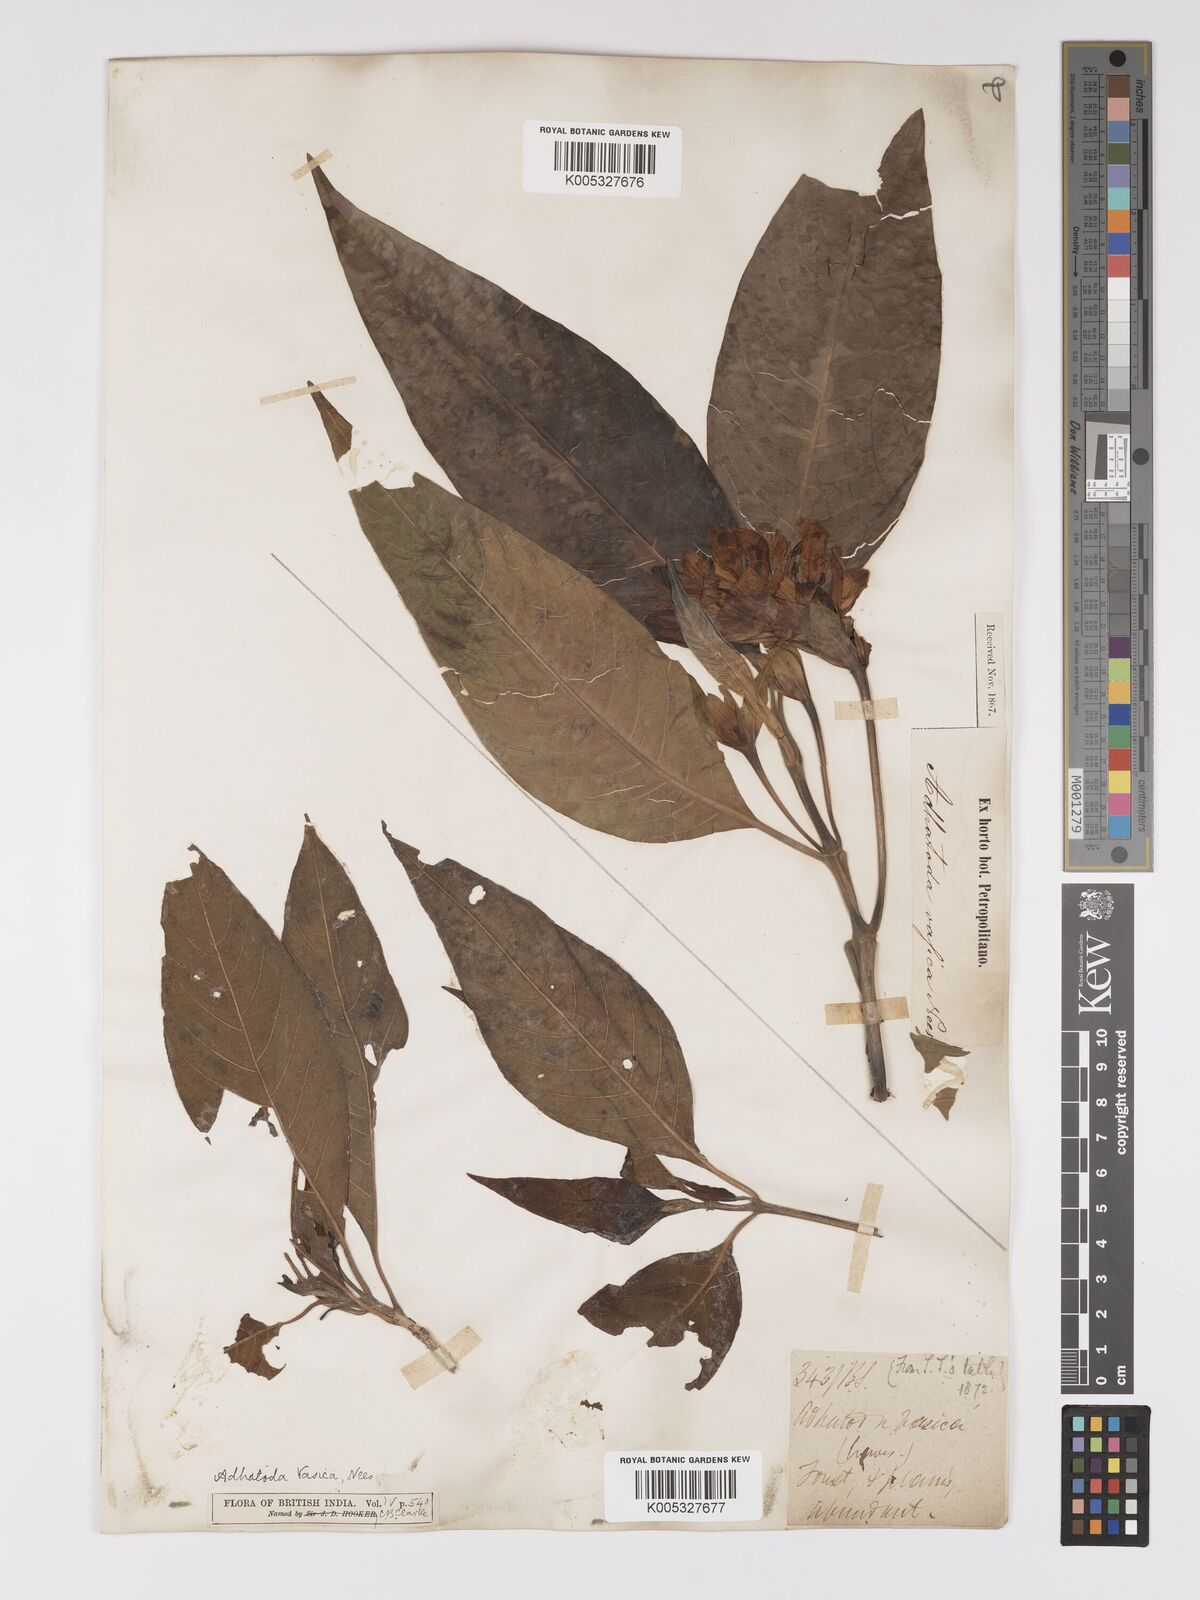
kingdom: Plantae
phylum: Tracheophyta
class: Magnoliopsida
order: Lamiales
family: Acanthaceae
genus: Ecbolium
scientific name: Ecbolium ligustrinum
